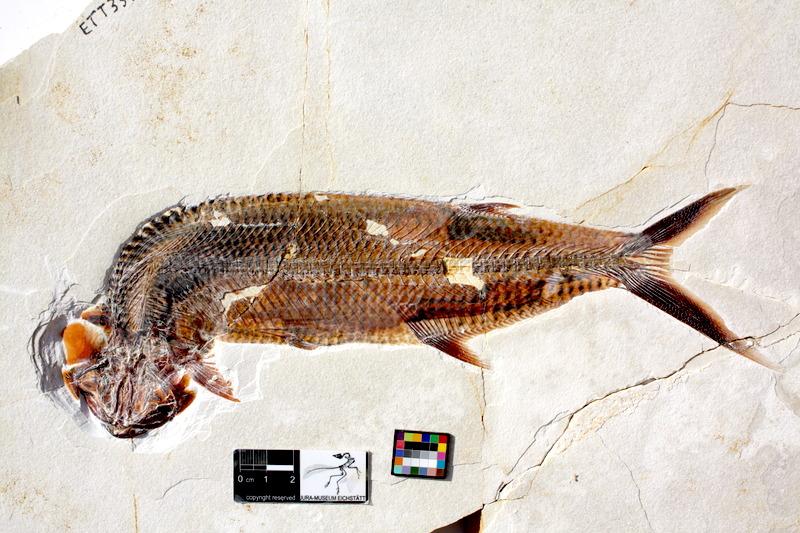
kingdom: Animalia
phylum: Chordata
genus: Thrissops
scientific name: Thrissops formosus
